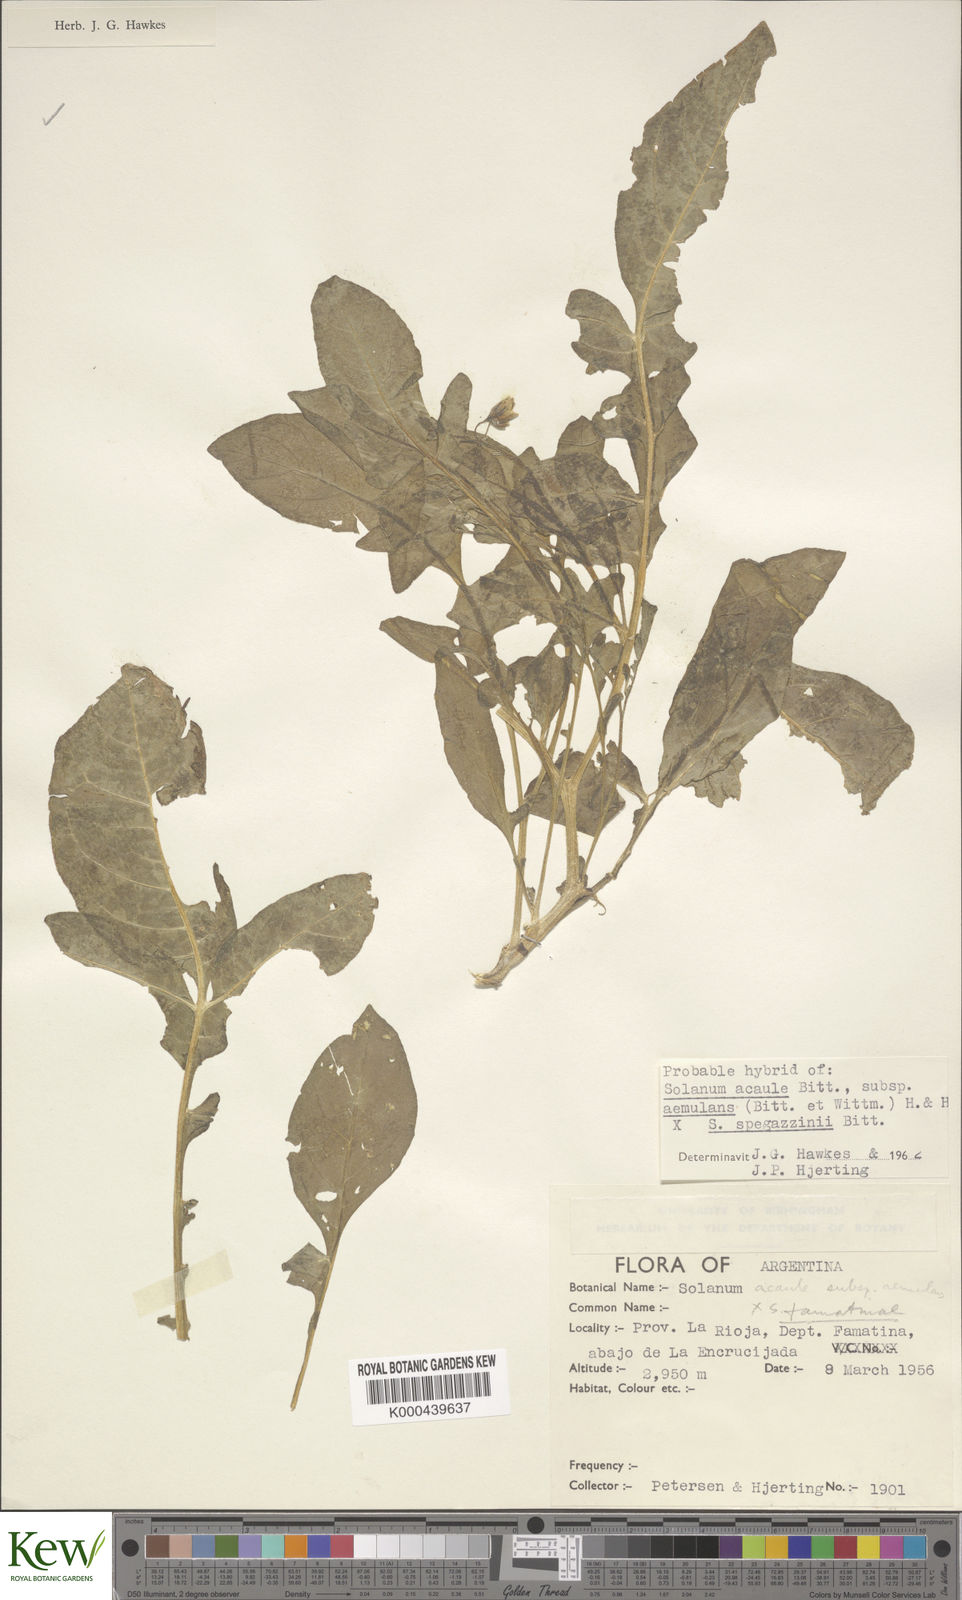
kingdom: Plantae
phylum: Tracheophyta
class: Magnoliopsida
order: Solanales
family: Solanaceae
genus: Solanum
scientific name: Solanum aemulans
